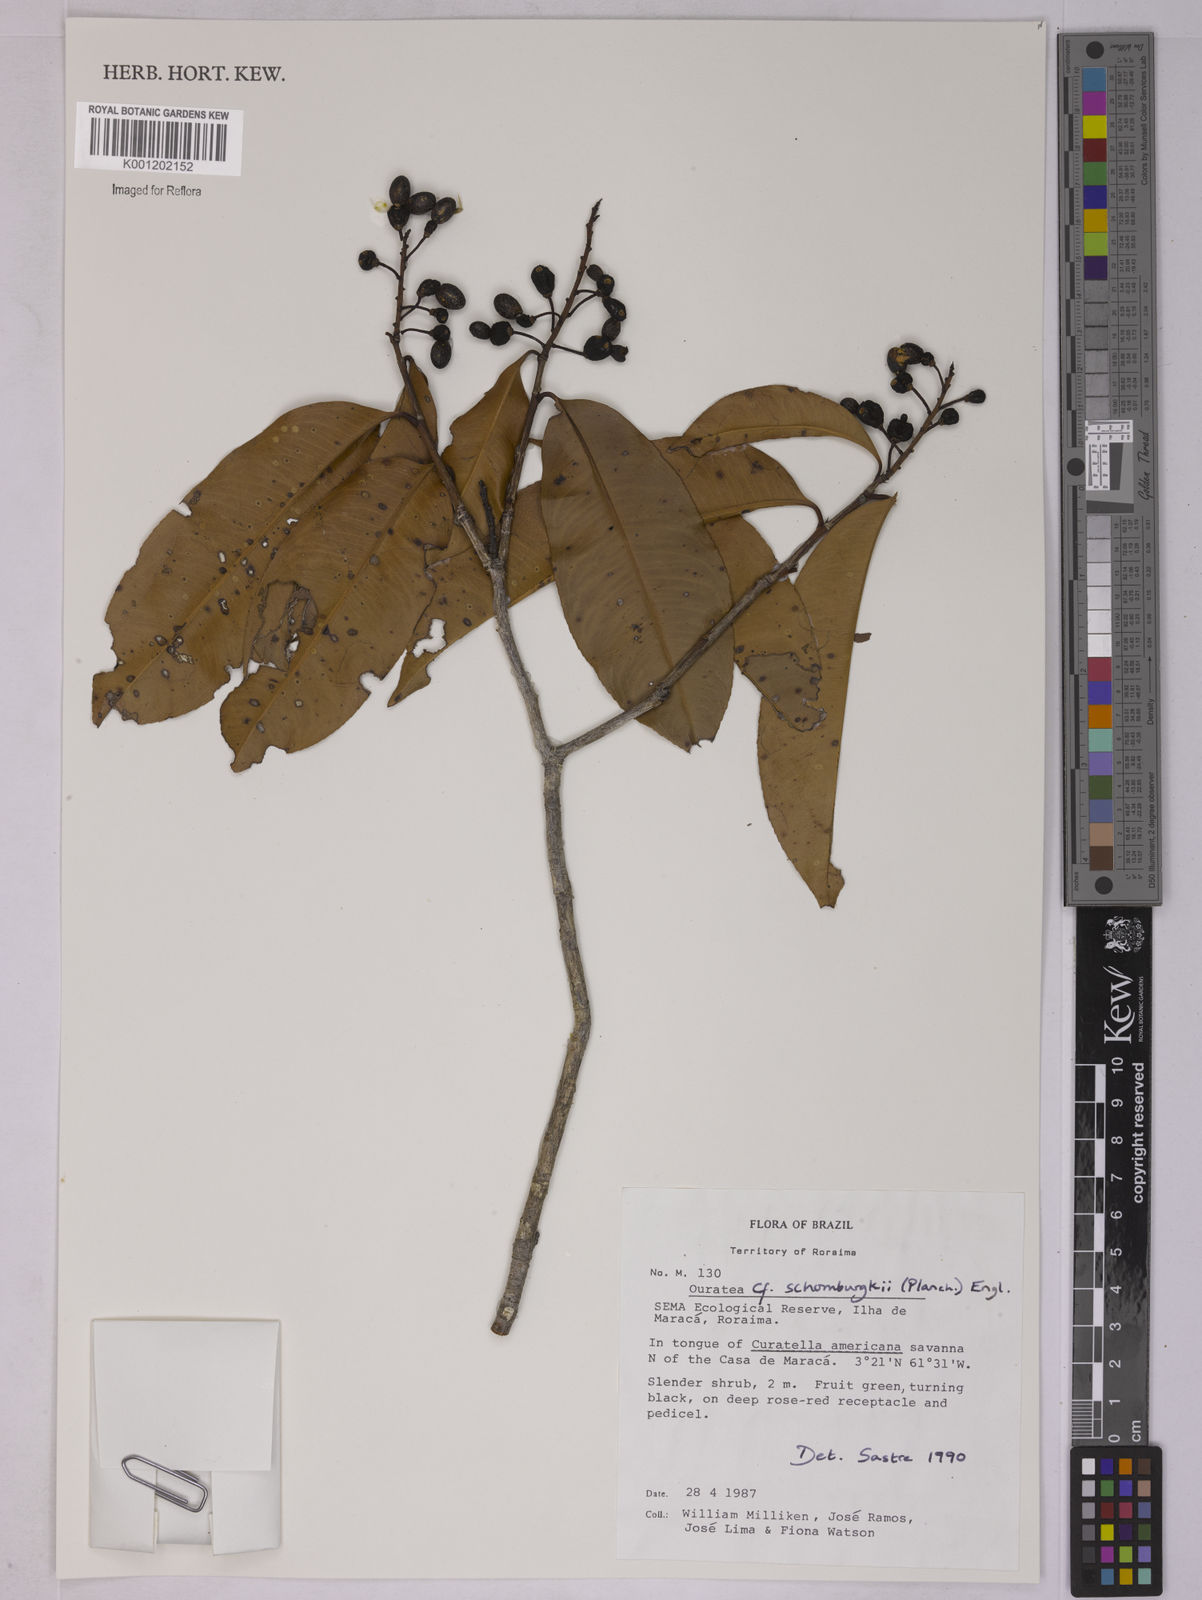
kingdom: Plantae
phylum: Tracheophyta
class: Magnoliopsida
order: Malpighiales
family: Ochnaceae
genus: Ouratea
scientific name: Ouratea schomburgkii
